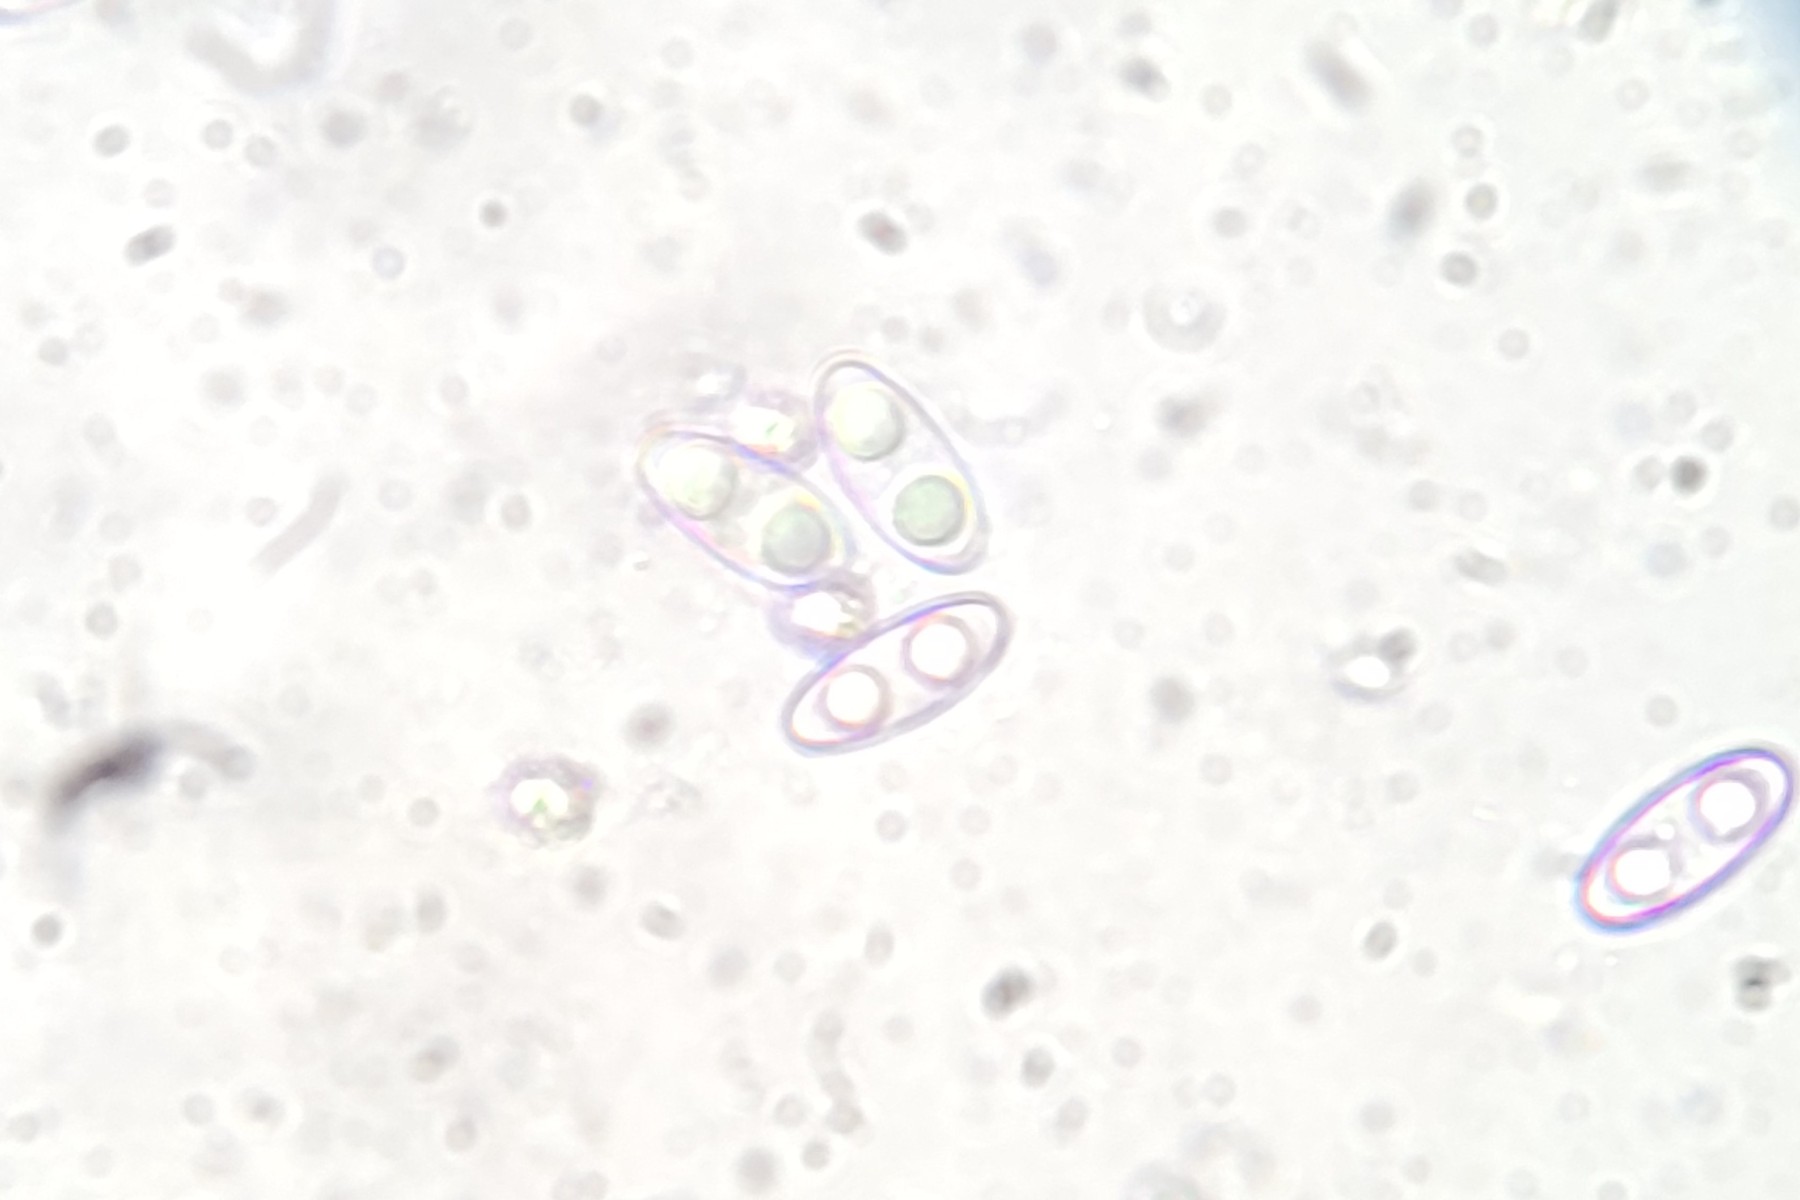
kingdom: Fungi
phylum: Ascomycota
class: Pezizomycetes
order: Pezizales
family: Discinaceae
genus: Gyromitra
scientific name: Gyromitra infula
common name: bispehue-stenmorkel
